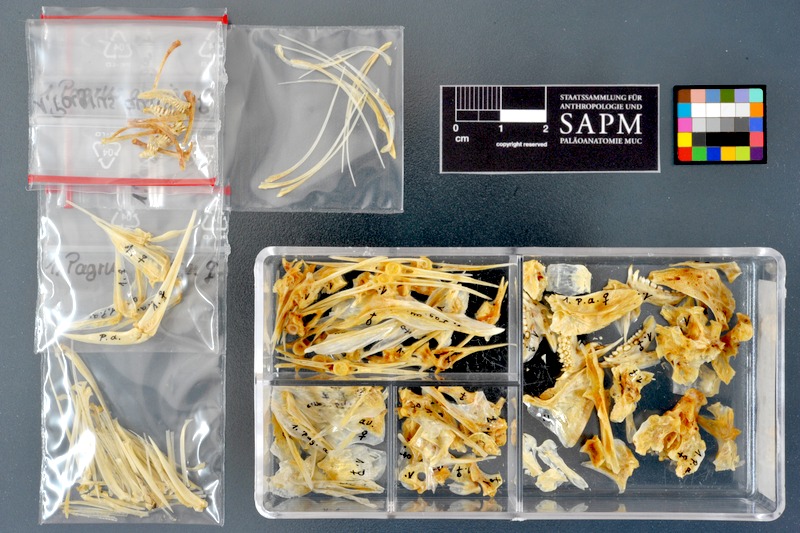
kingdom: Animalia
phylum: Chordata
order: Perciformes
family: Sparidae
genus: Pagrus
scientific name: Pagrus auriga
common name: Murudai
